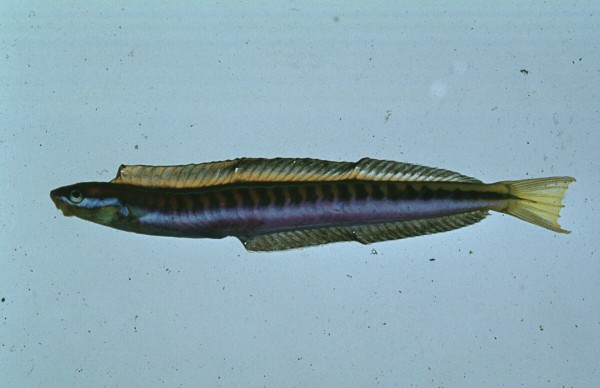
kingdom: Animalia
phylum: Chordata
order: Perciformes
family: Blenniidae
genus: Plagiotremus
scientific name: Plagiotremus tapeinosoma
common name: Hit and run blenny
